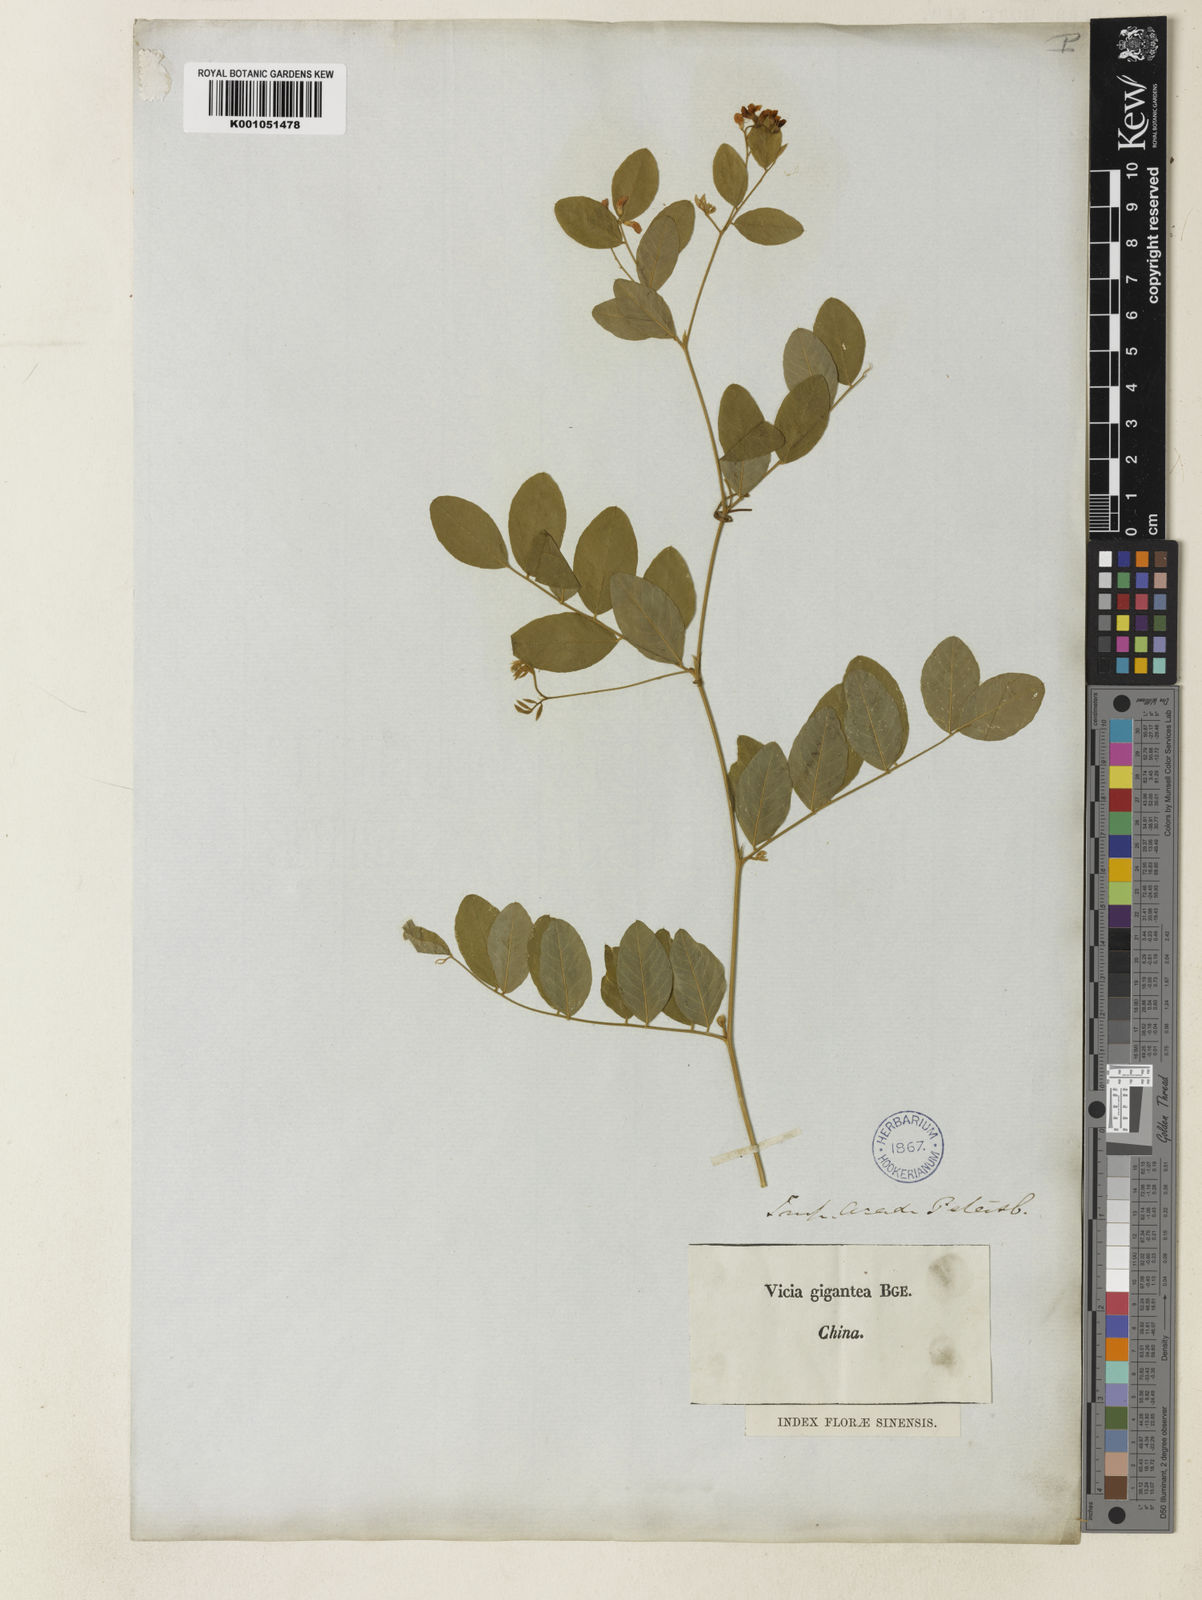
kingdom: Plantae
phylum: Tracheophyta
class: Magnoliopsida
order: Fabales
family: Fabaceae
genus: Vicia
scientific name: Vicia ramosissima
